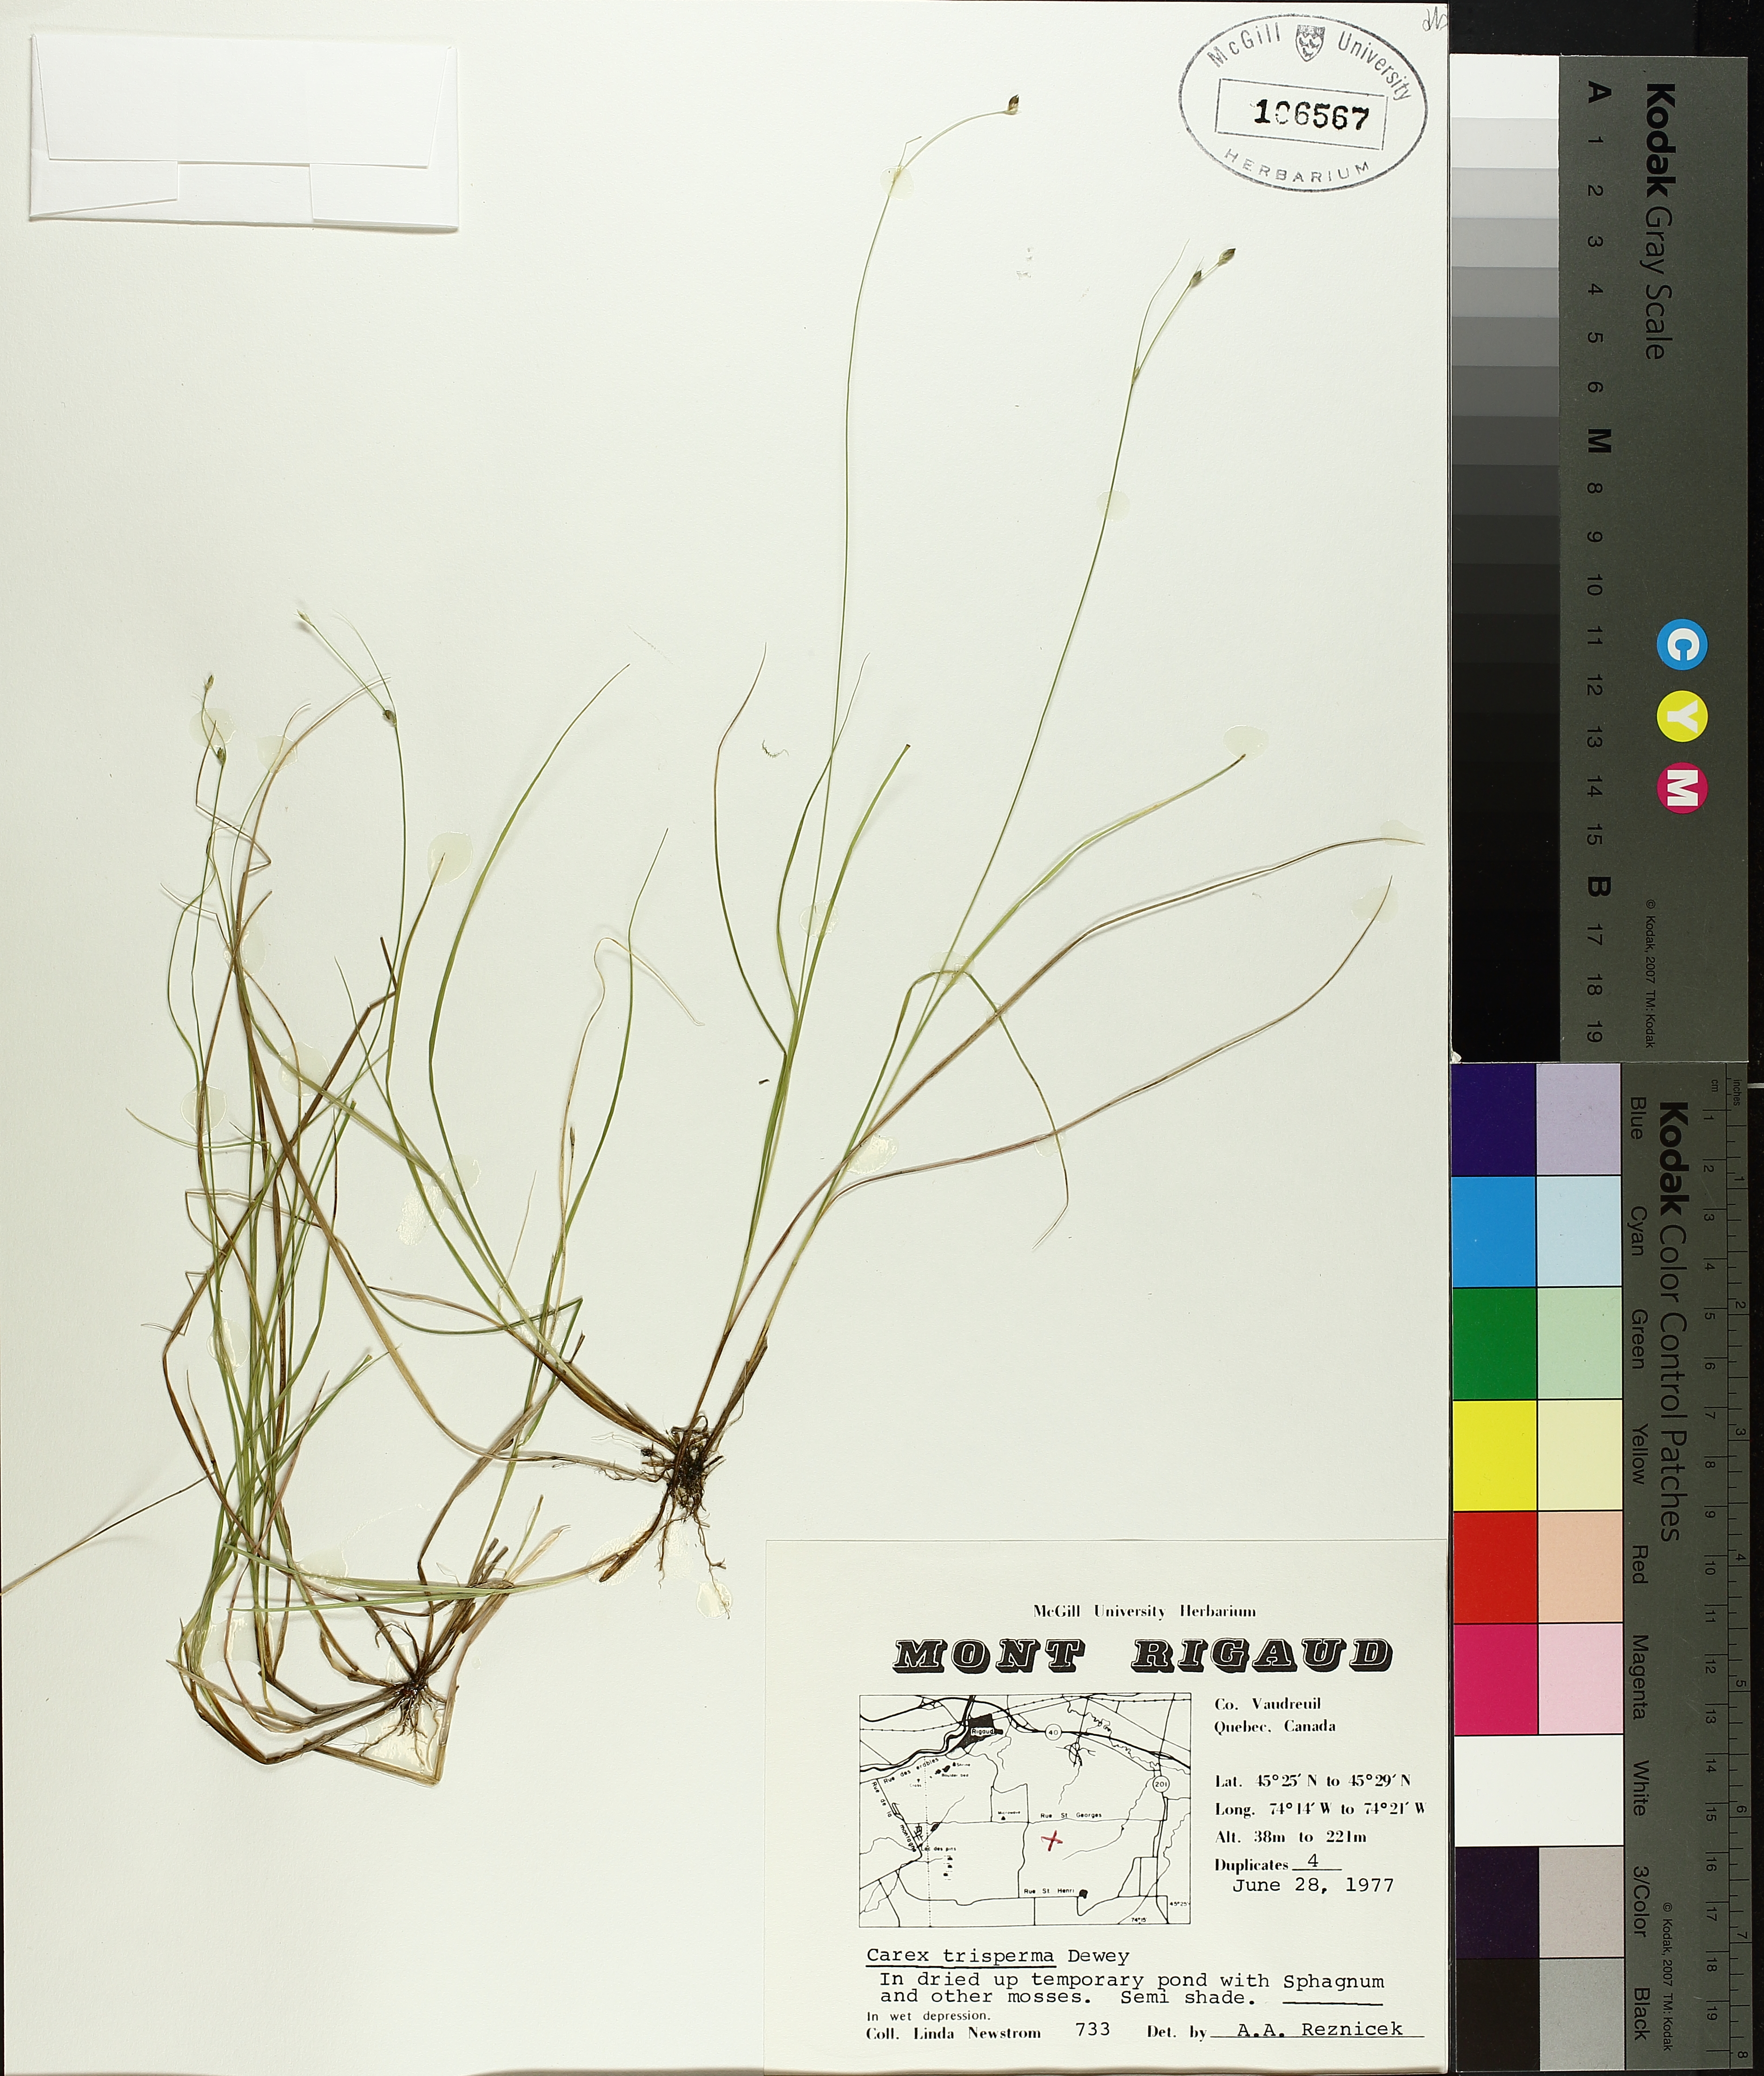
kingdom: Plantae
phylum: Tracheophyta
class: Liliopsida
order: Poales
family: Cyperaceae
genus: Carex
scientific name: Carex trisperma
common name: Three-seeded sedge
